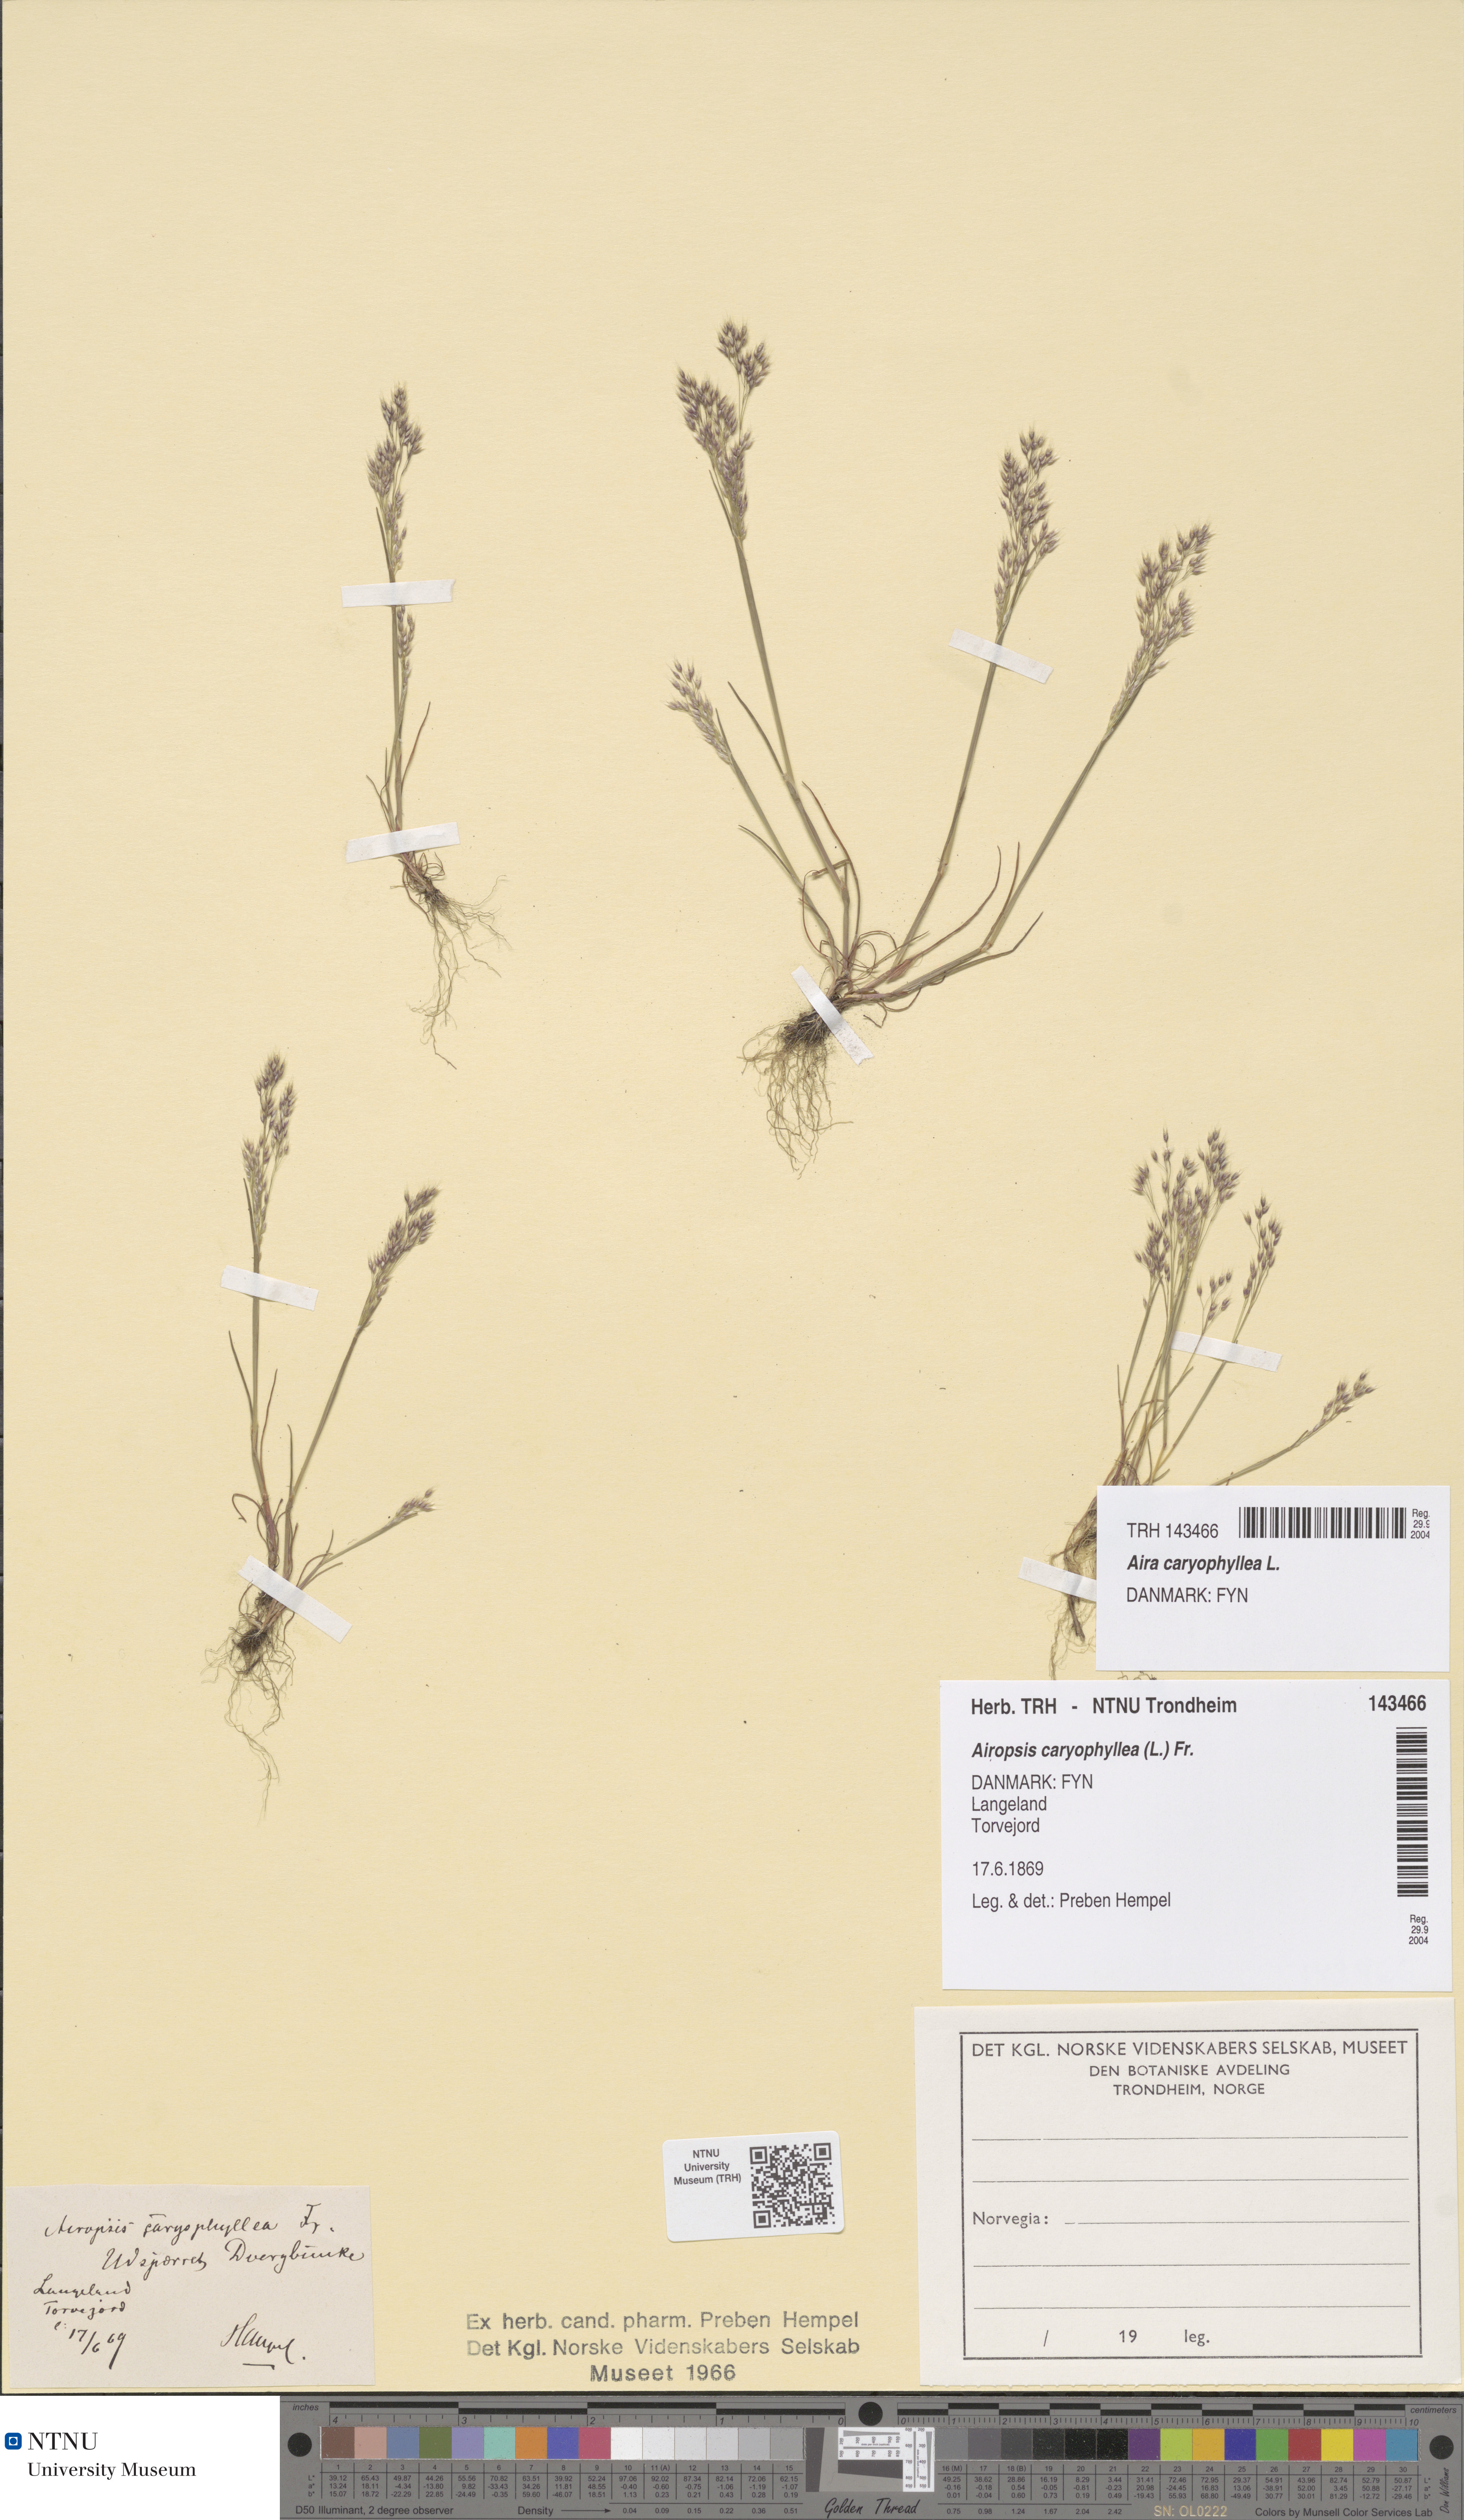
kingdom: Plantae
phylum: Tracheophyta
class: Liliopsida
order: Poales
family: Poaceae
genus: Aira
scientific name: Aira caryophyllea
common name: Silver hairgrass
